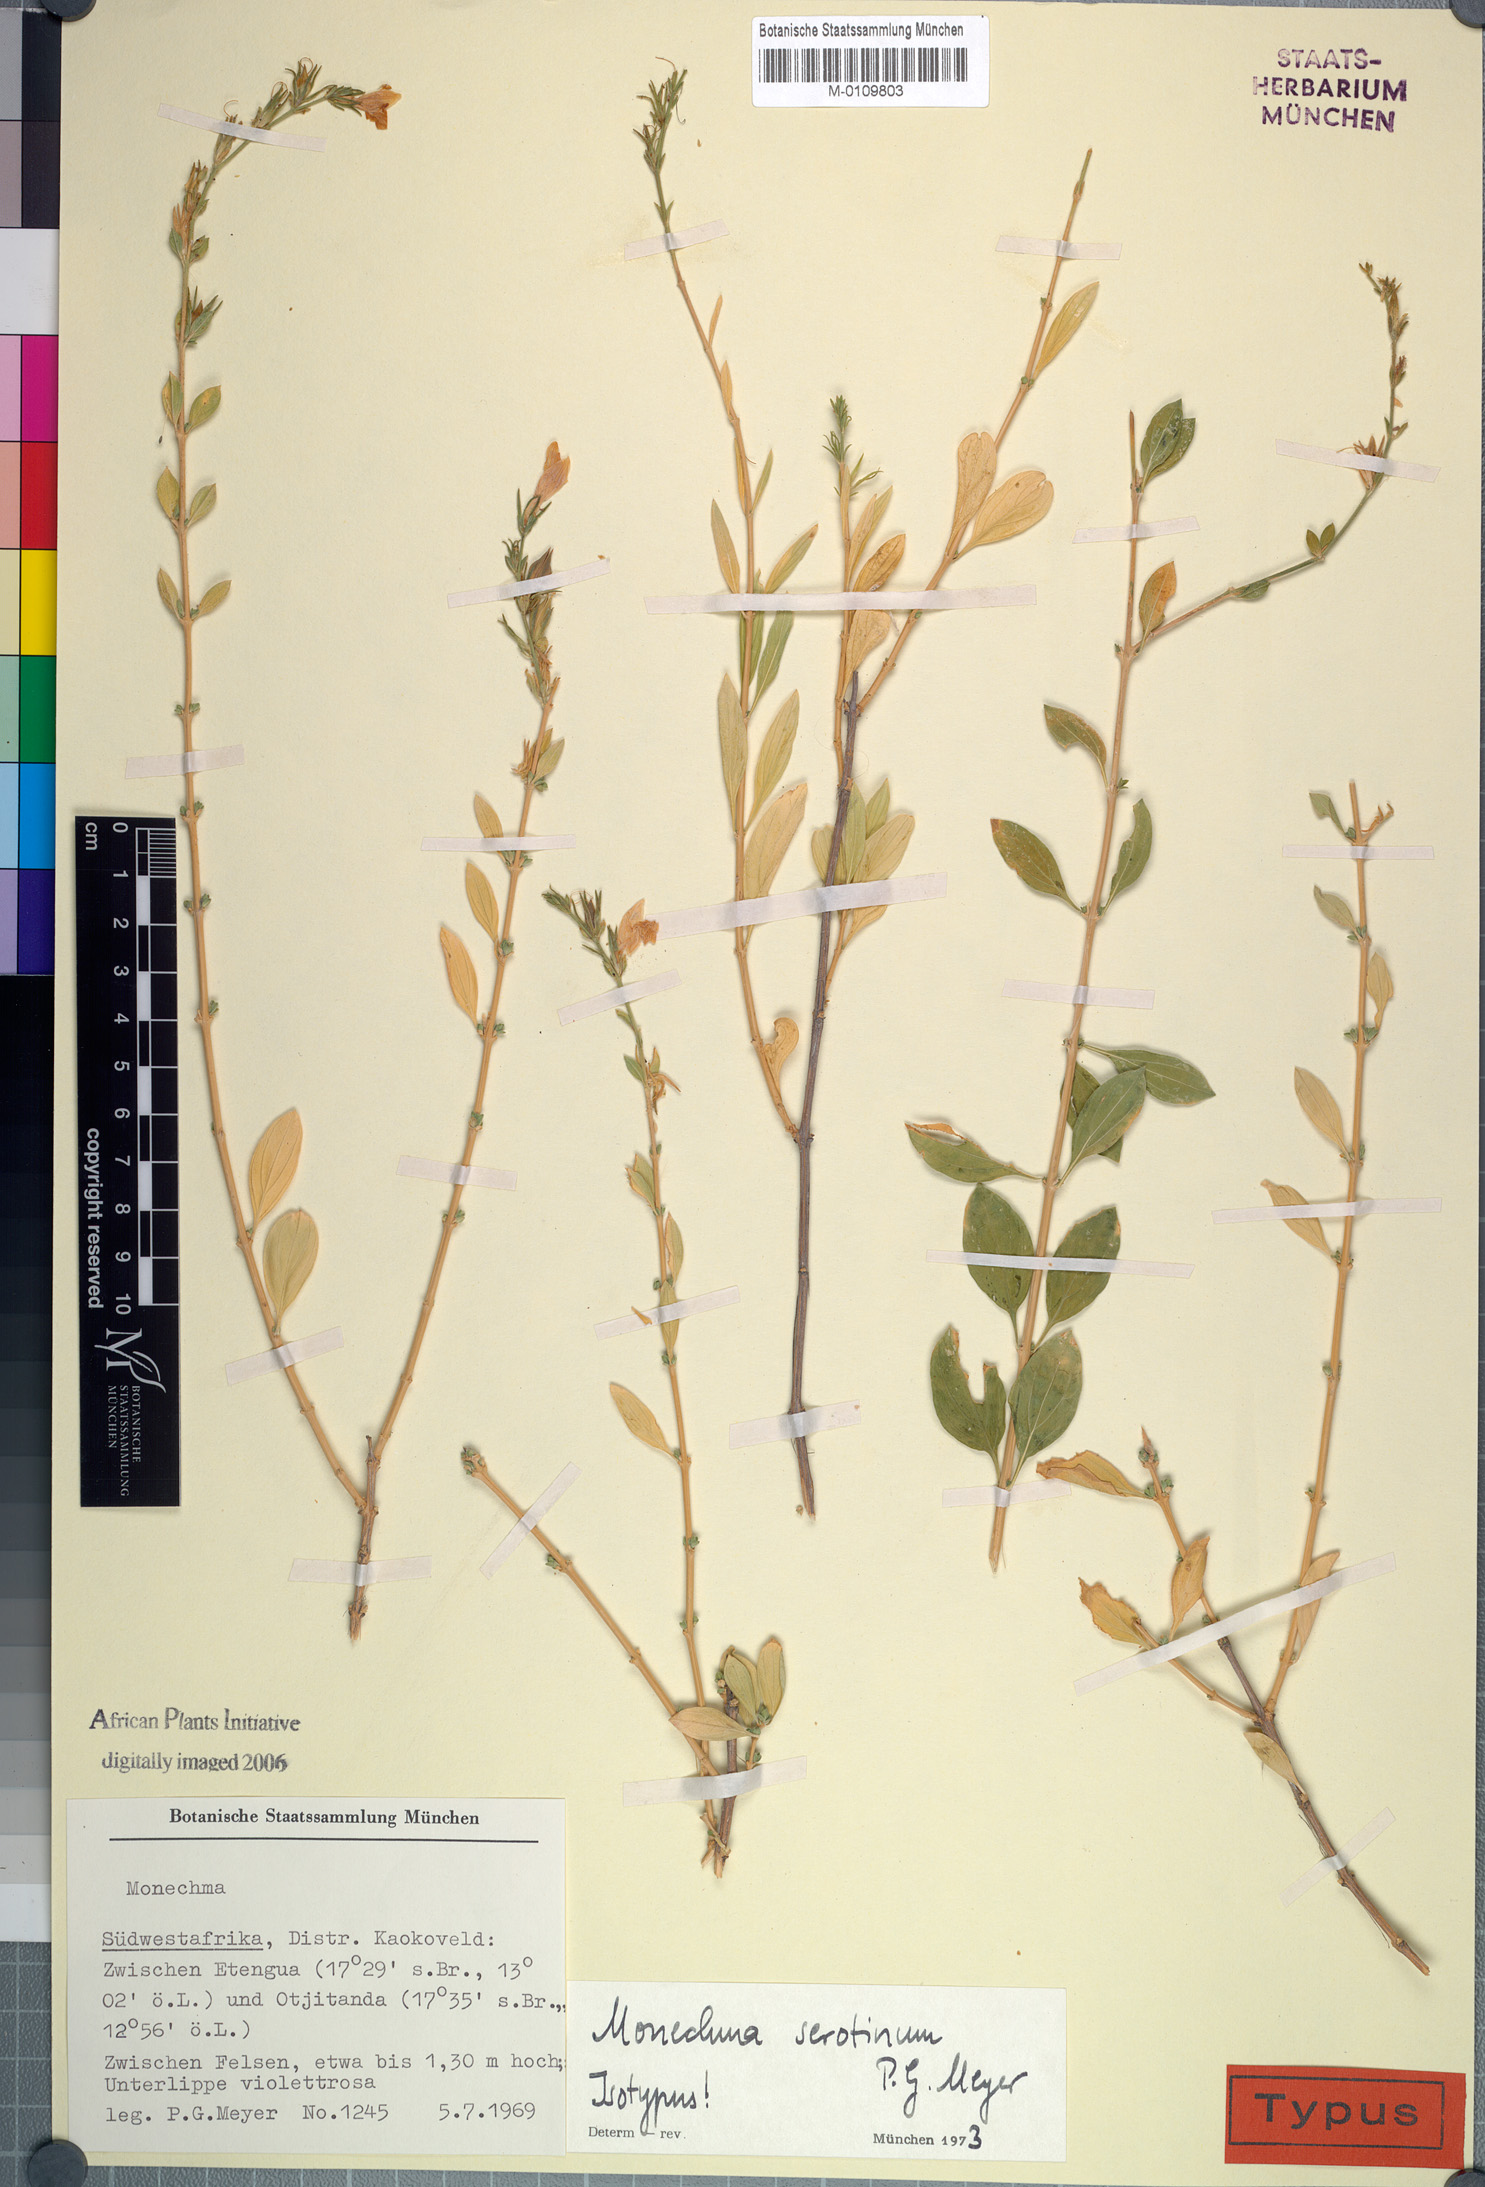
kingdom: Plantae
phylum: Tracheophyta
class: Magnoliopsida
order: Lamiales
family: Acanthaceae
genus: Monechma
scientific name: Monechma serotinum
